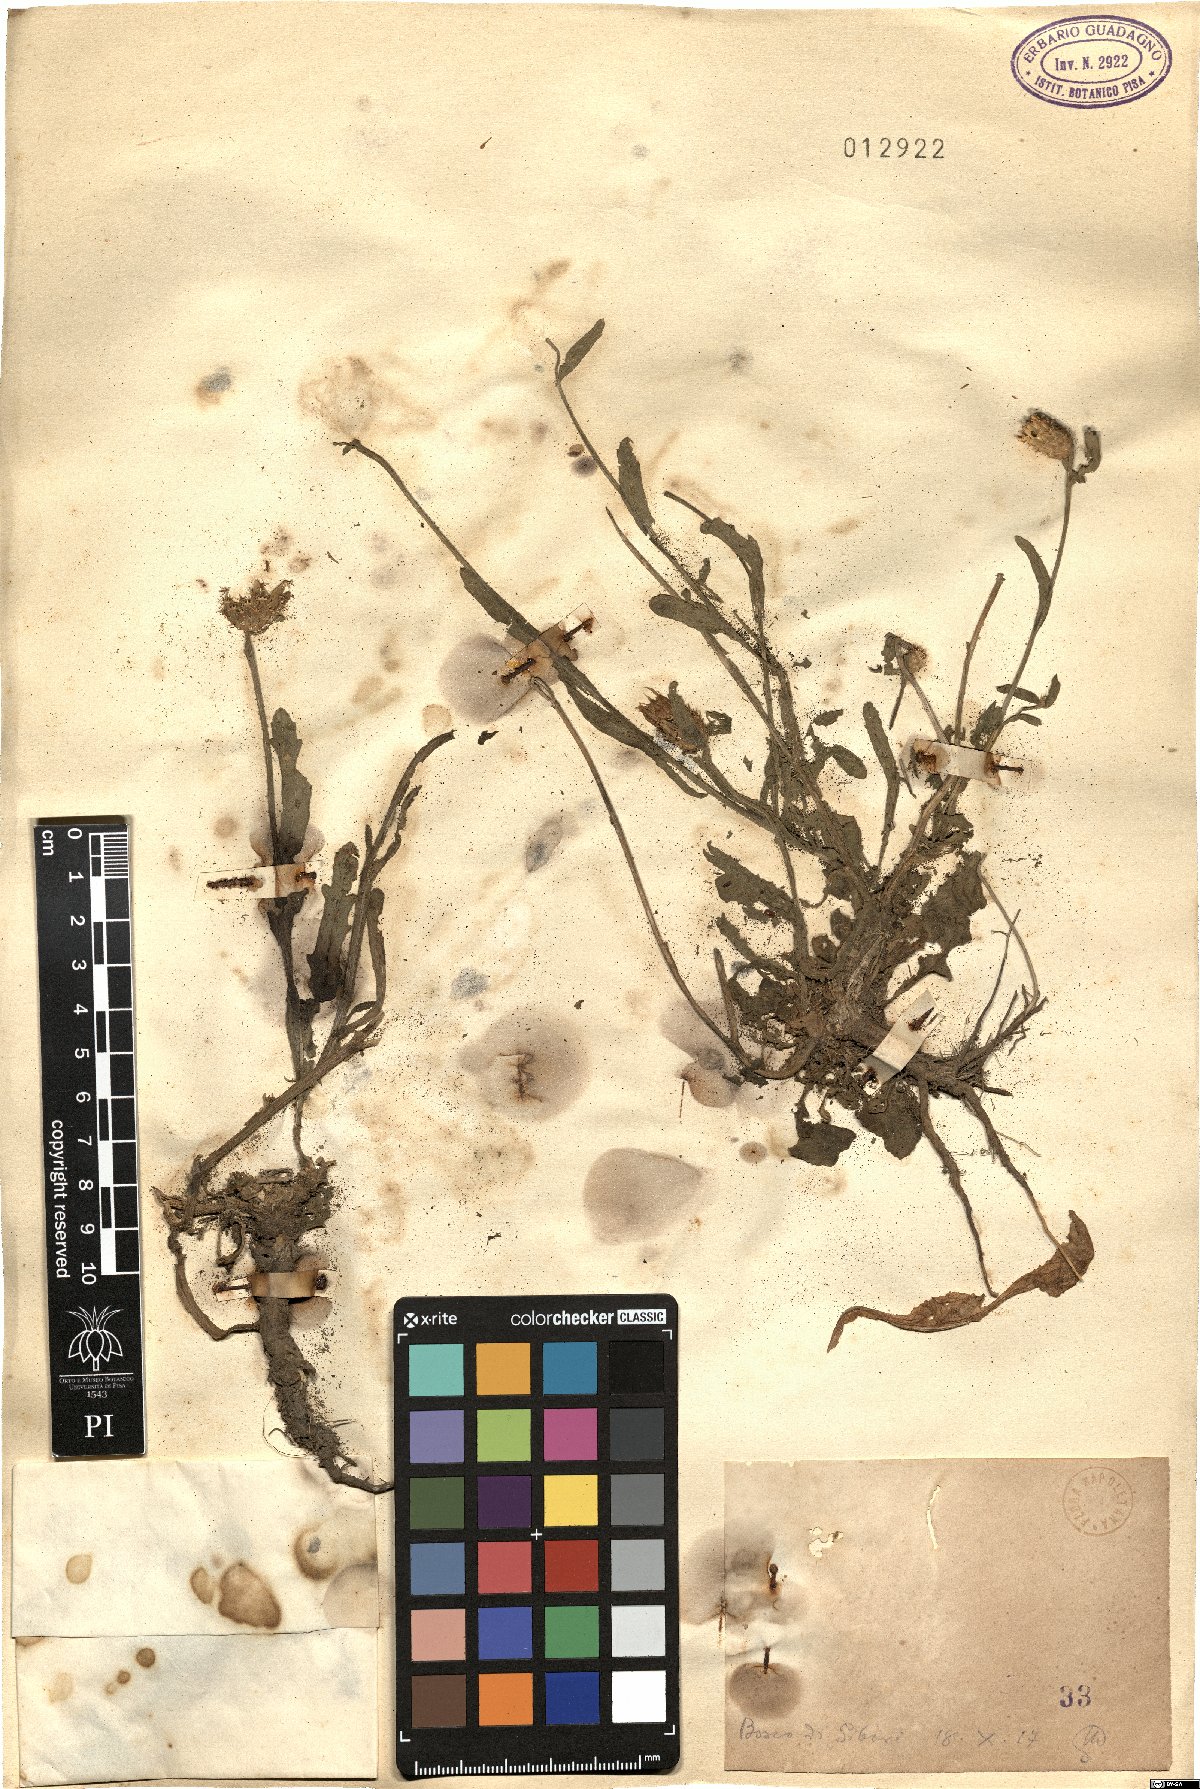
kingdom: Plantae
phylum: Tracheophyta
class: Magnoliopsida
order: Asterales
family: Asteraceae
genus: Centaurea
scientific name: Centaurea
